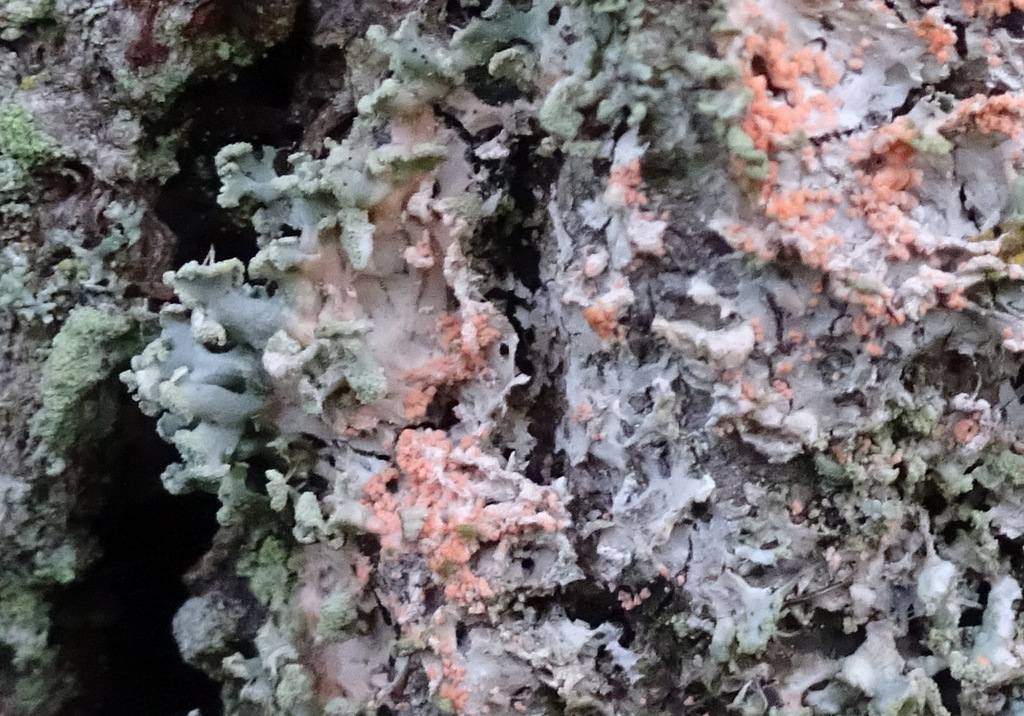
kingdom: Fungi
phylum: Basidiomycota
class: Agaricomycetes
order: Corticiales
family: Corticiaceae
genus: Erythricium
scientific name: Erythricium aurantiacum
